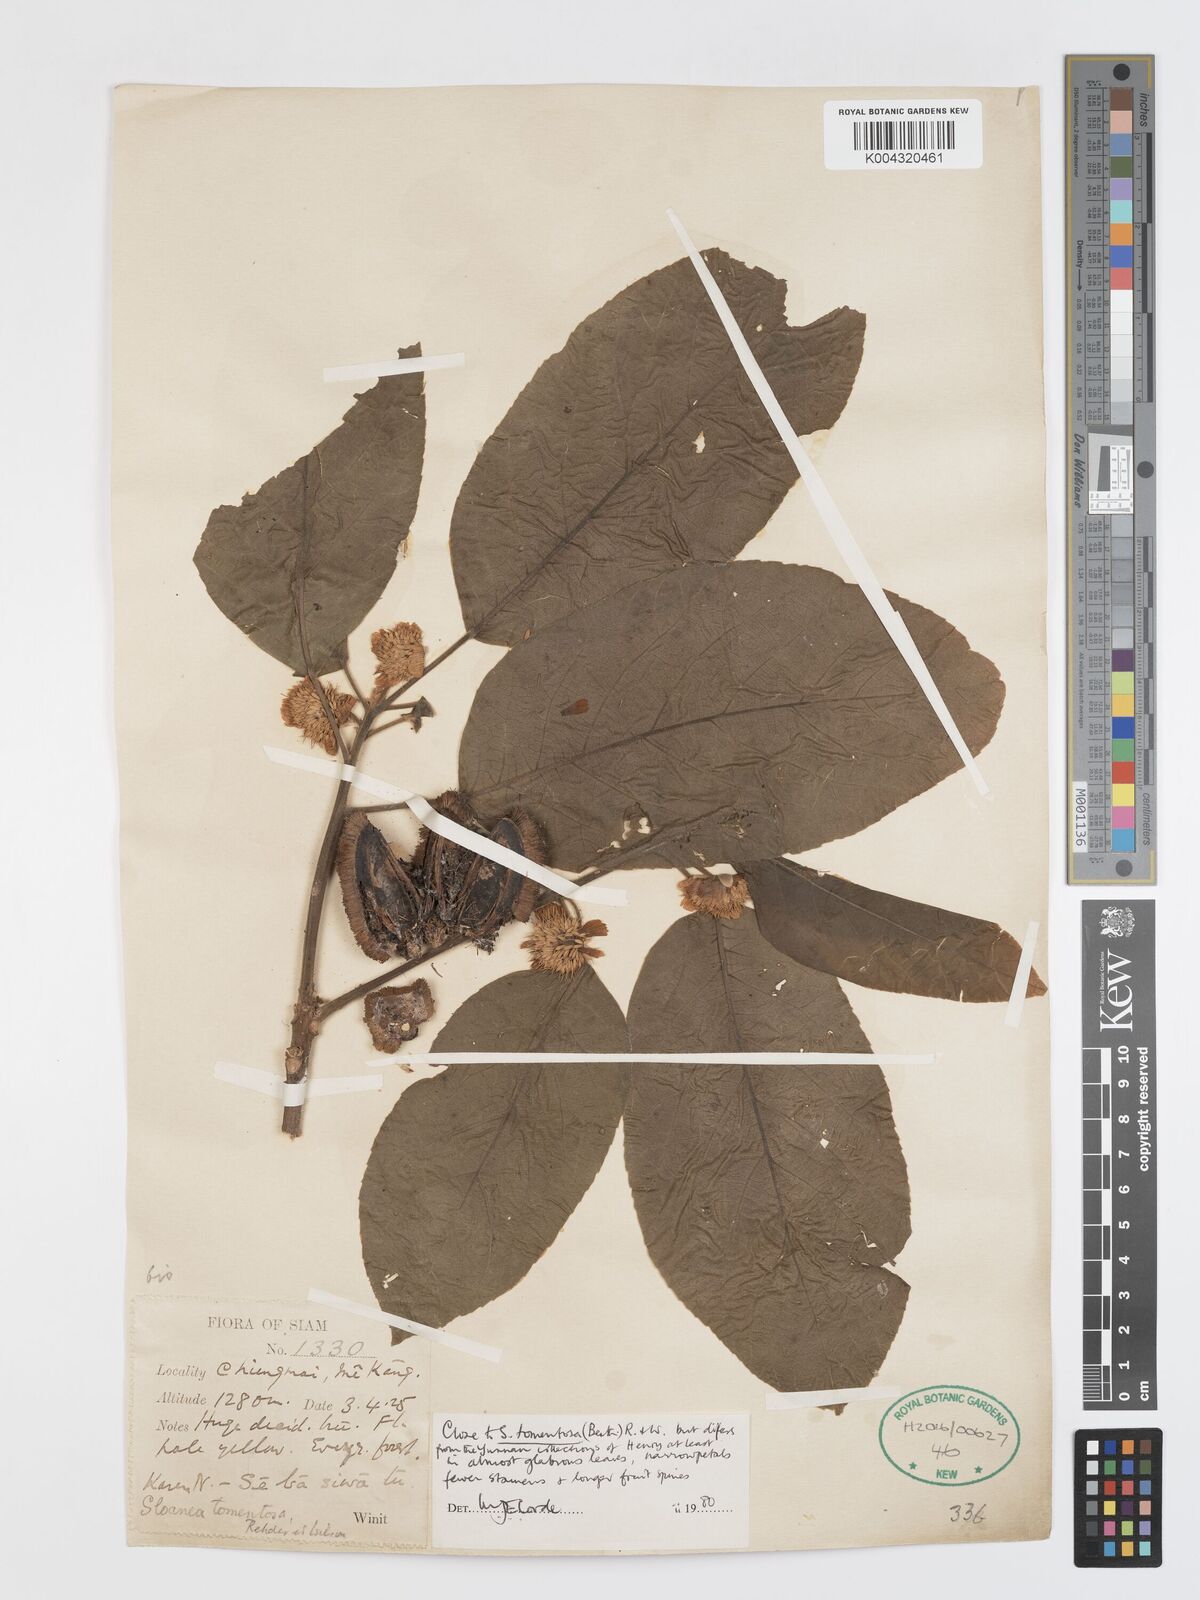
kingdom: Plantae
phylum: Tracheophyta
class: Magnoliopsida
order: Oxalidales
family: Elaeocarpaceae
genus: Sloanea
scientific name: Sloanea tomentosa
